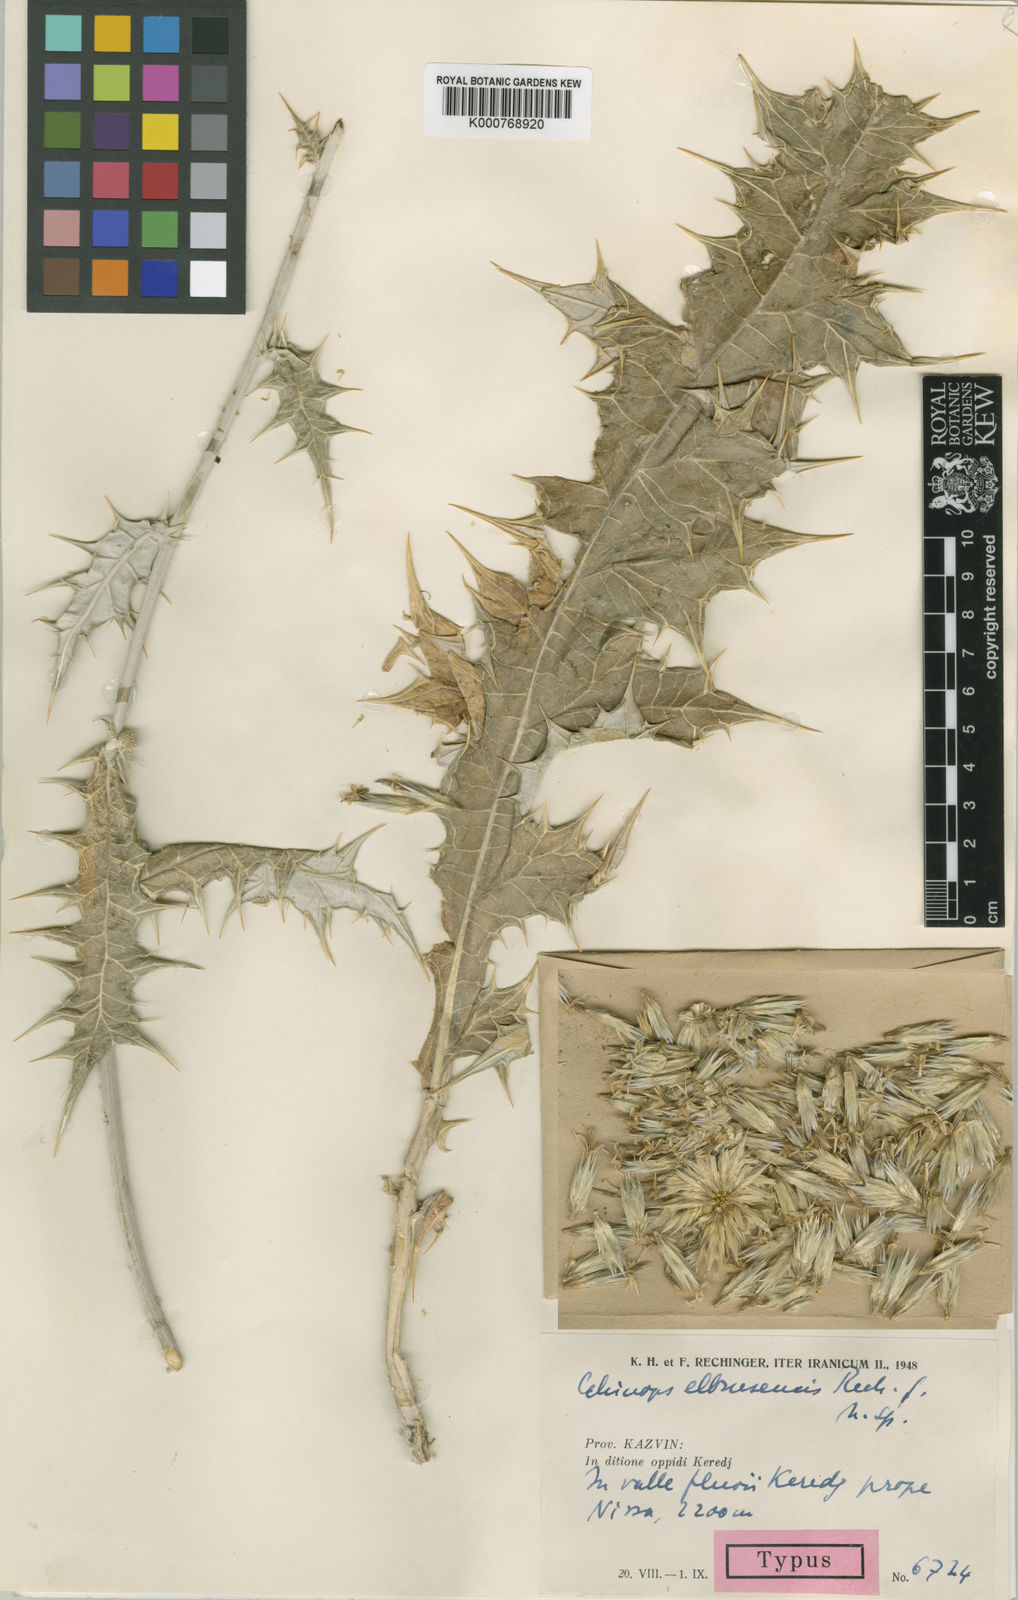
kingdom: Plantae
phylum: Tracheophyta
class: Magnoliopsida
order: Asterales
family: Asteraceae
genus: Echinops
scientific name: Echinops ritro
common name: Globe thistle
